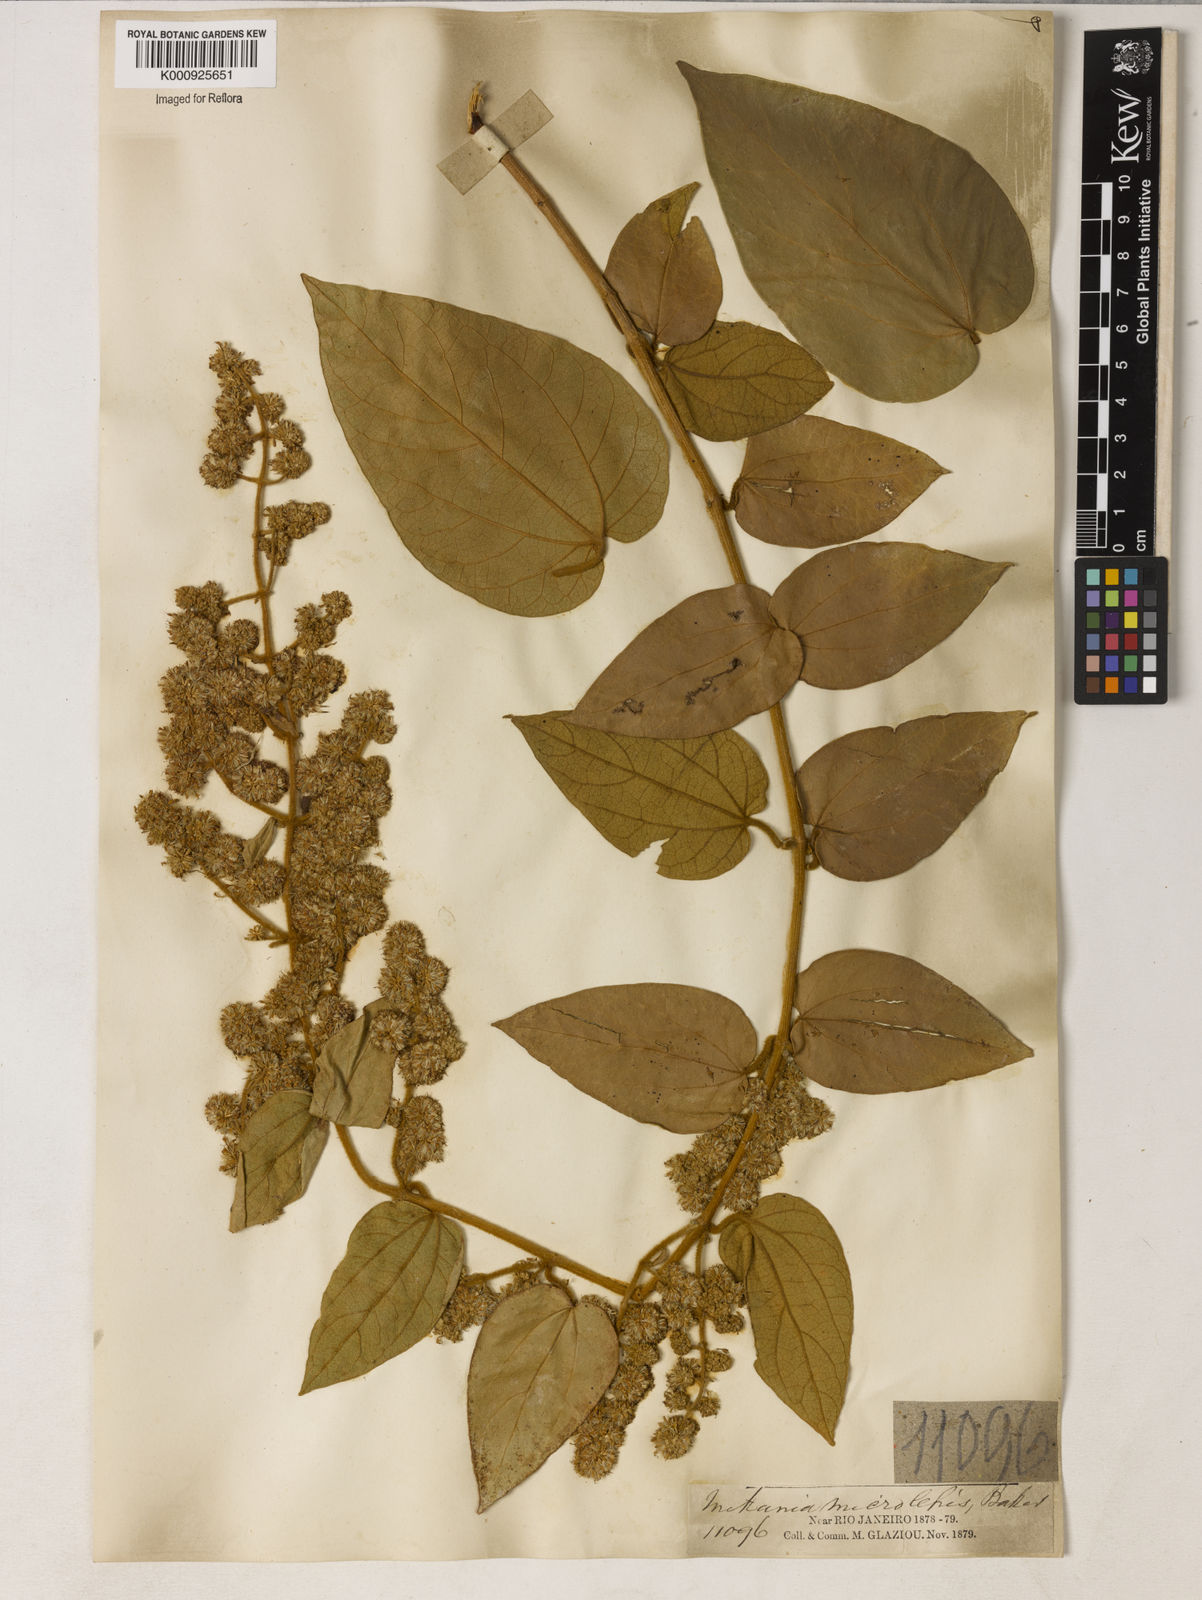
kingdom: Plantae
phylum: Tracheophyta
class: Magnoliopsida
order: Asterales
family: Asteraceae
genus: Mikania
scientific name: Mikania microlepis
